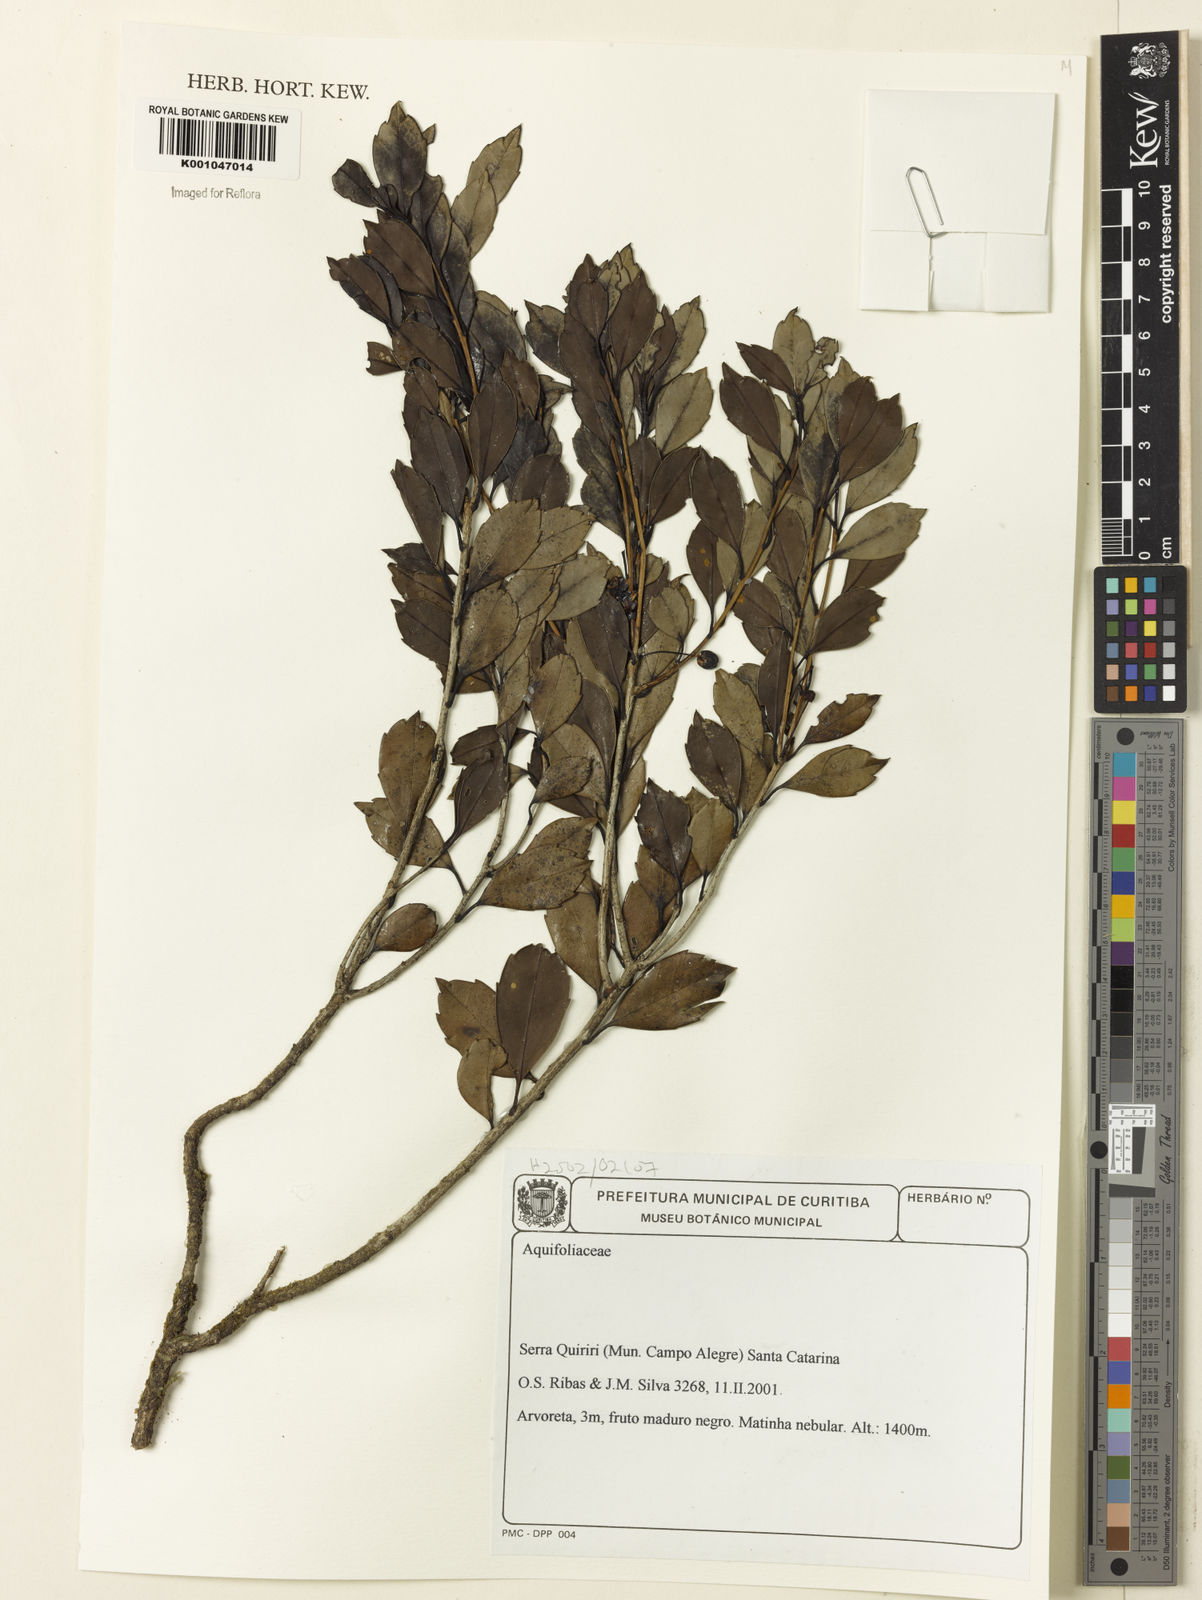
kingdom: Plantae
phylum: Tracheophyta
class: Magnoliopsida
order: Aquifoliales
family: Aquifoliaceae
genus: Ilex
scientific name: Ilex
